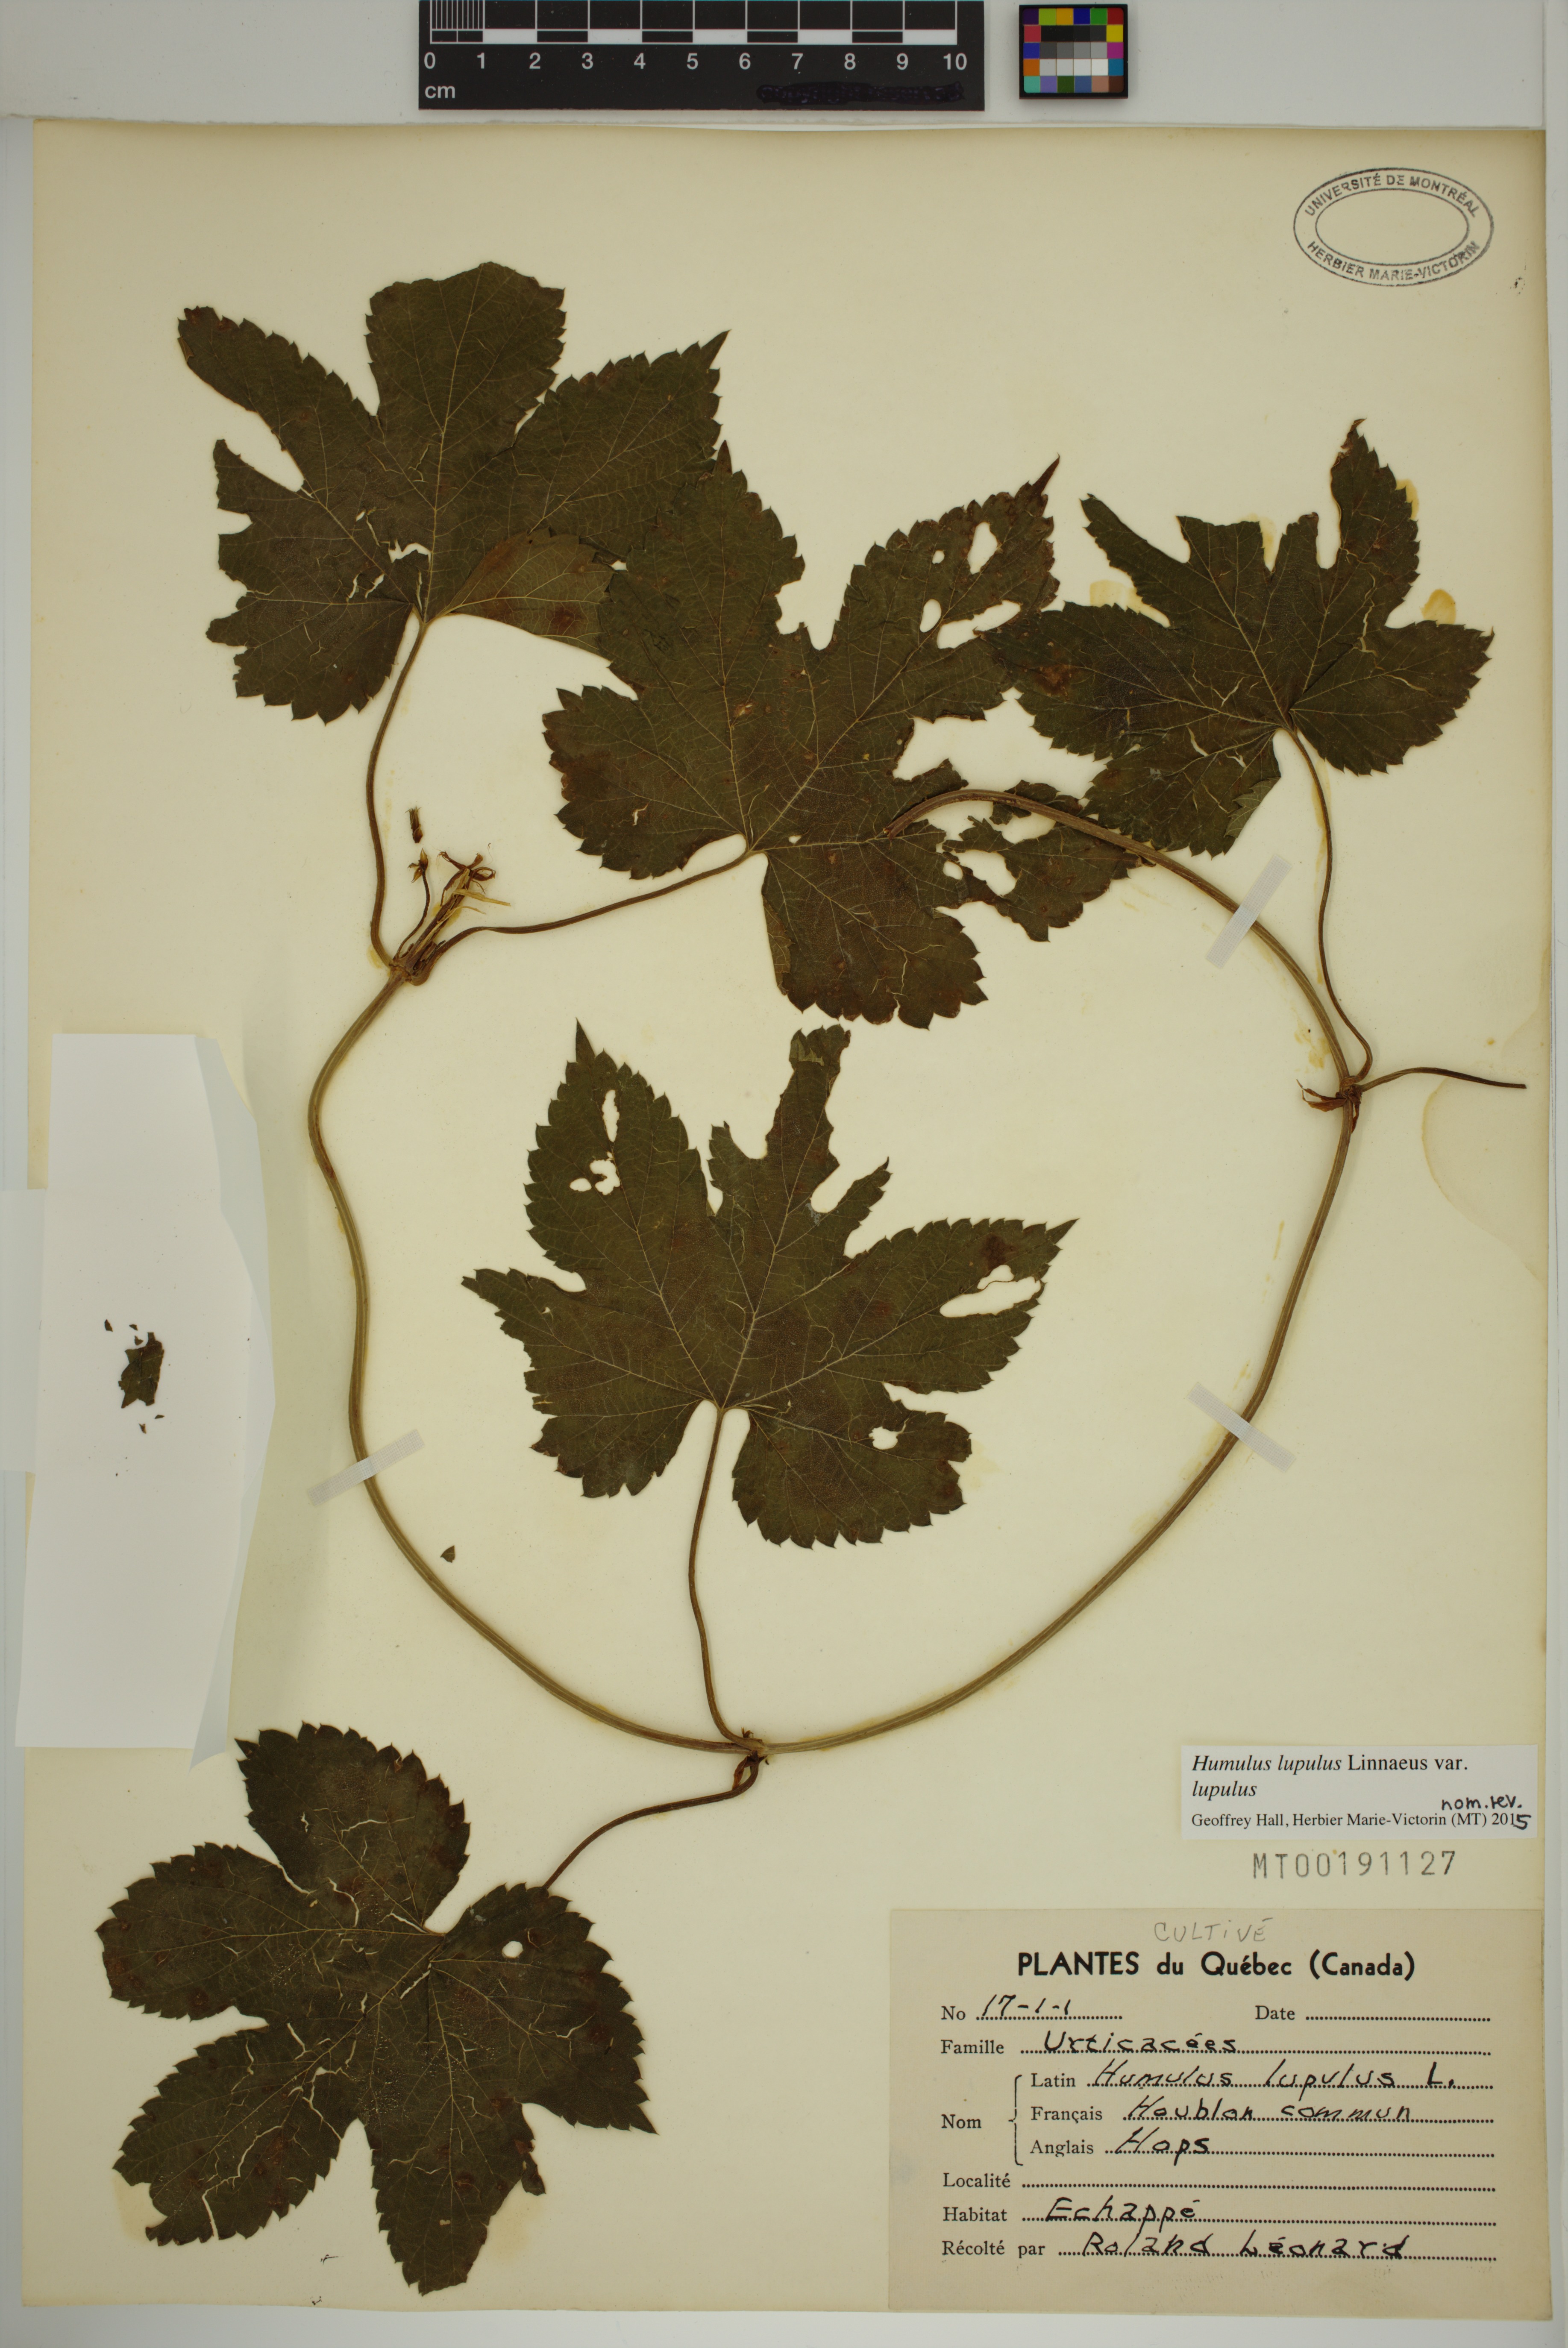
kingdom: Plantae
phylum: Tracheophyta
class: Magnoliopsida
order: Rosales
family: Cannabaceae
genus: Humulus
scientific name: Humulus lupulus
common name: Hop
